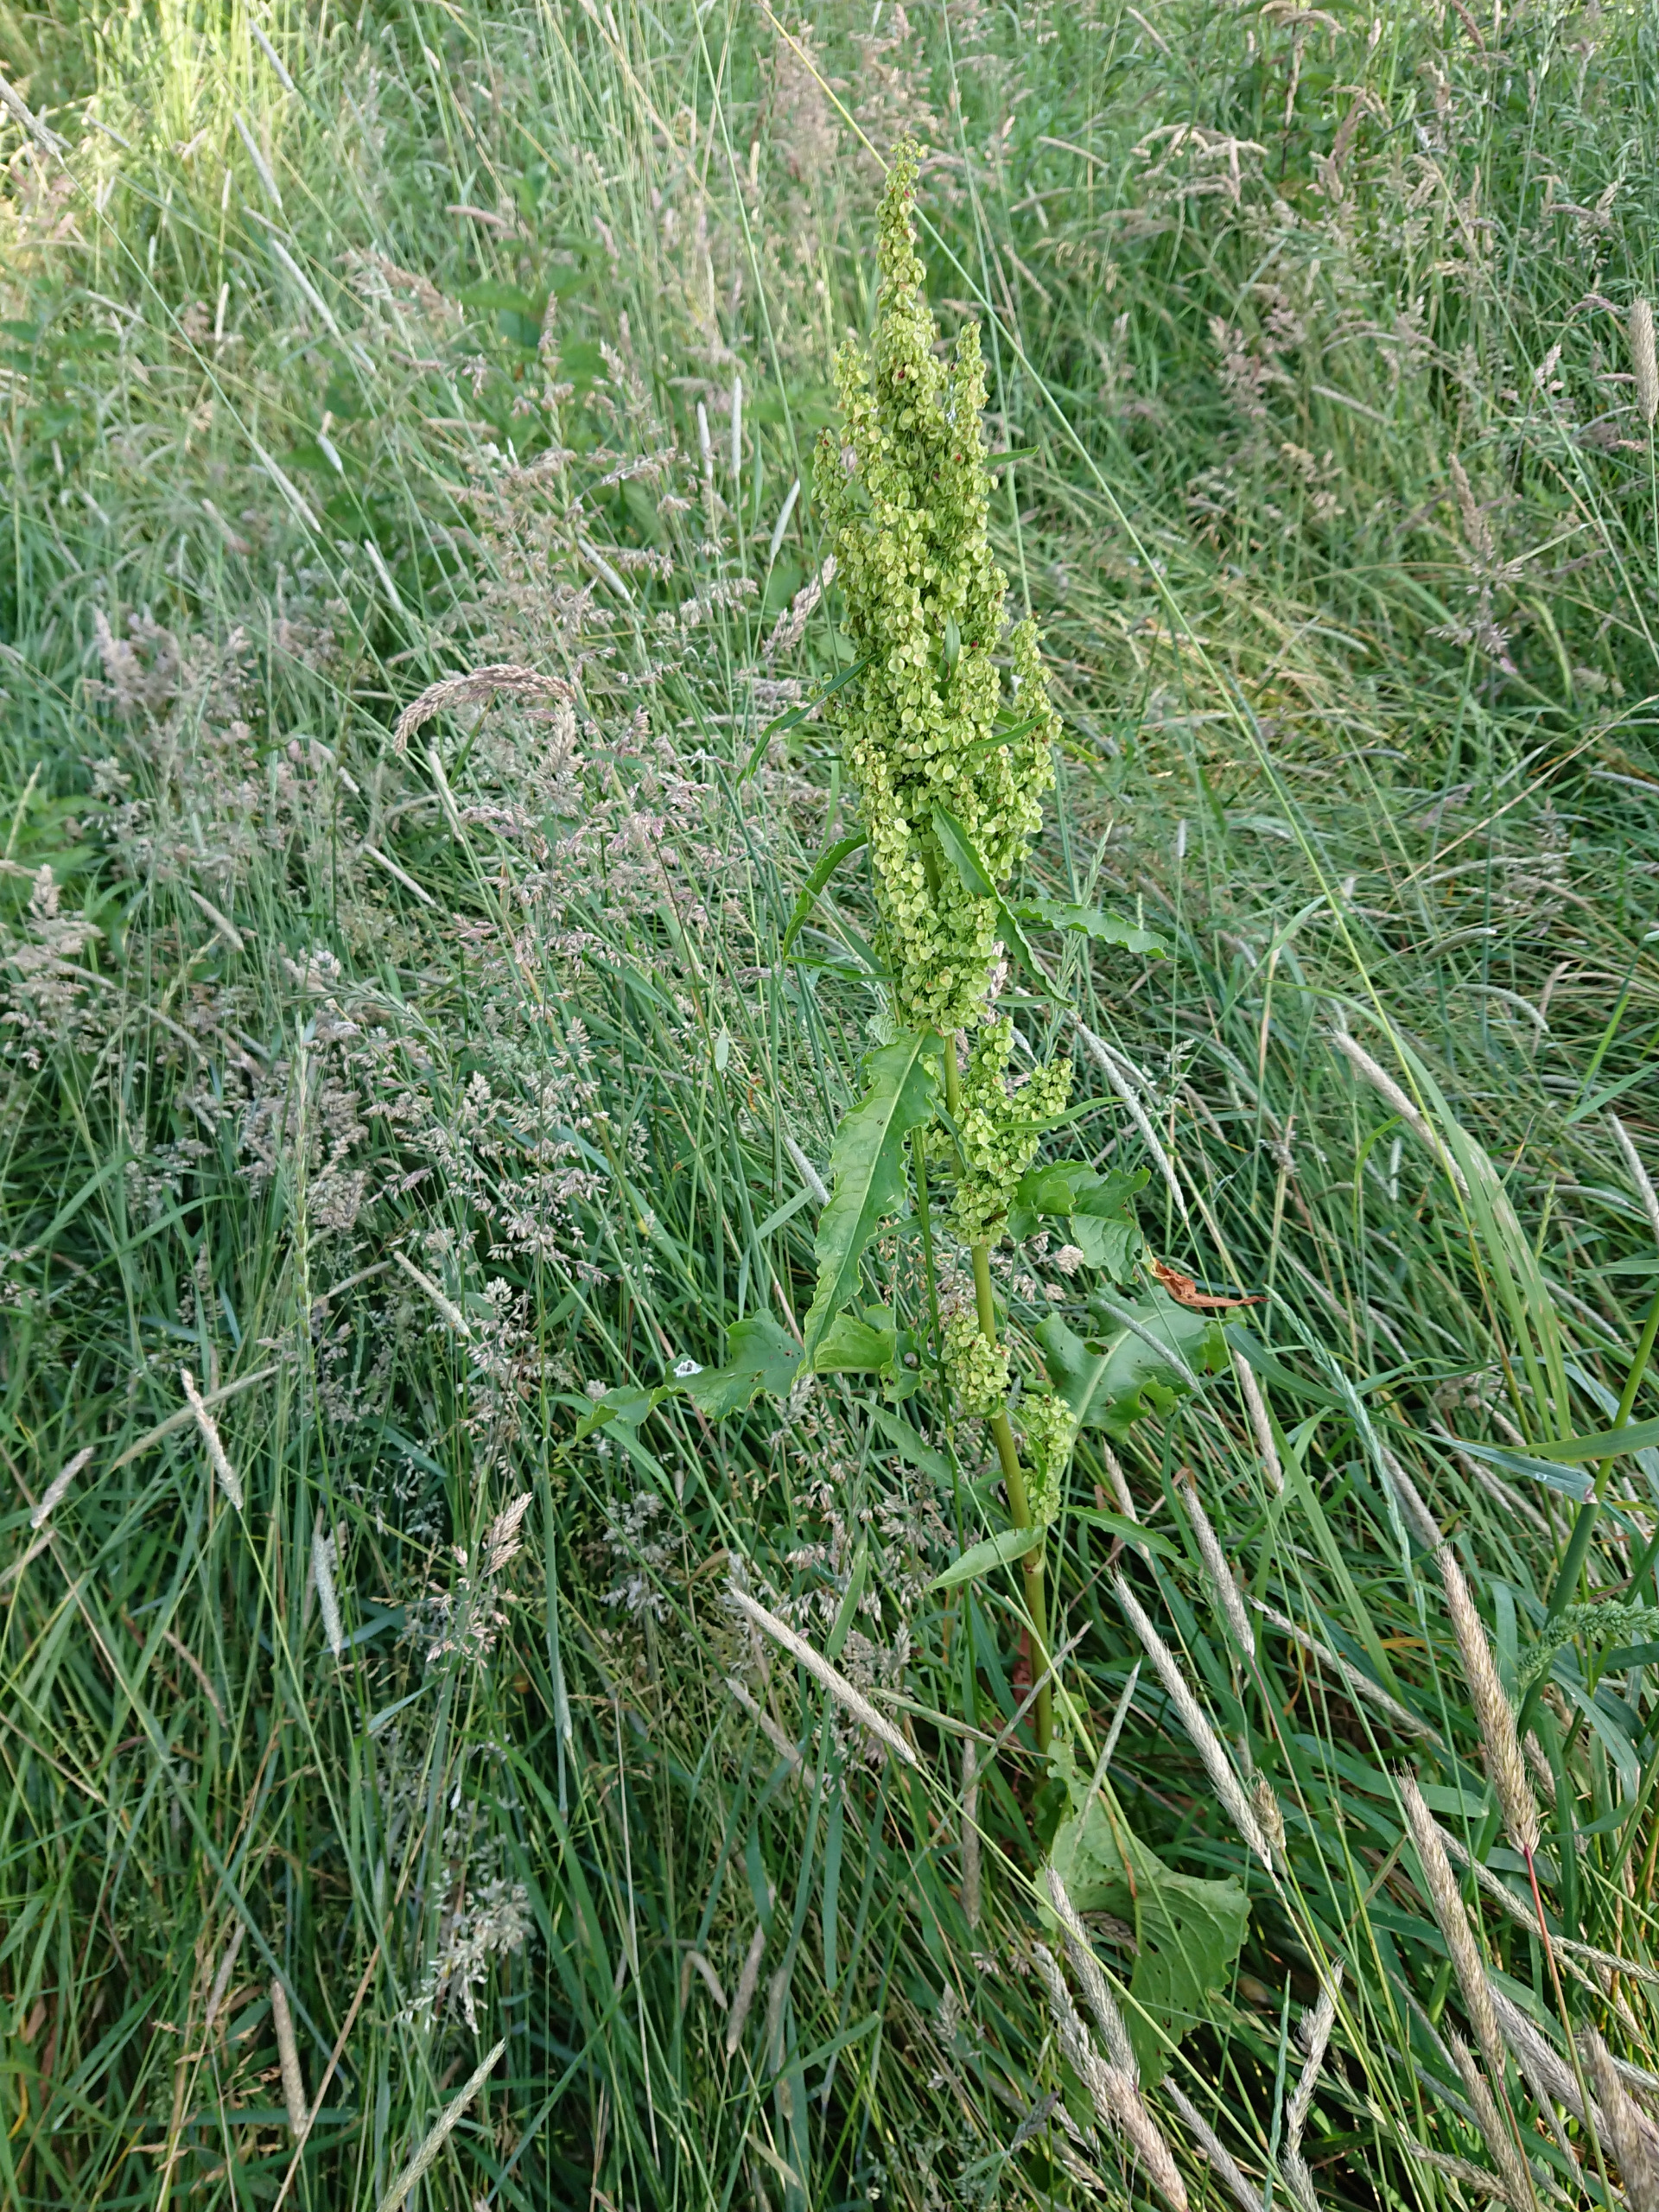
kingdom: Plantae
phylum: Tracheophyta
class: Magnoliopsida
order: Caryophyllales
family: Polygonaceae
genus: Rumex
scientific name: Rumex longifolius
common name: By-skræppe
